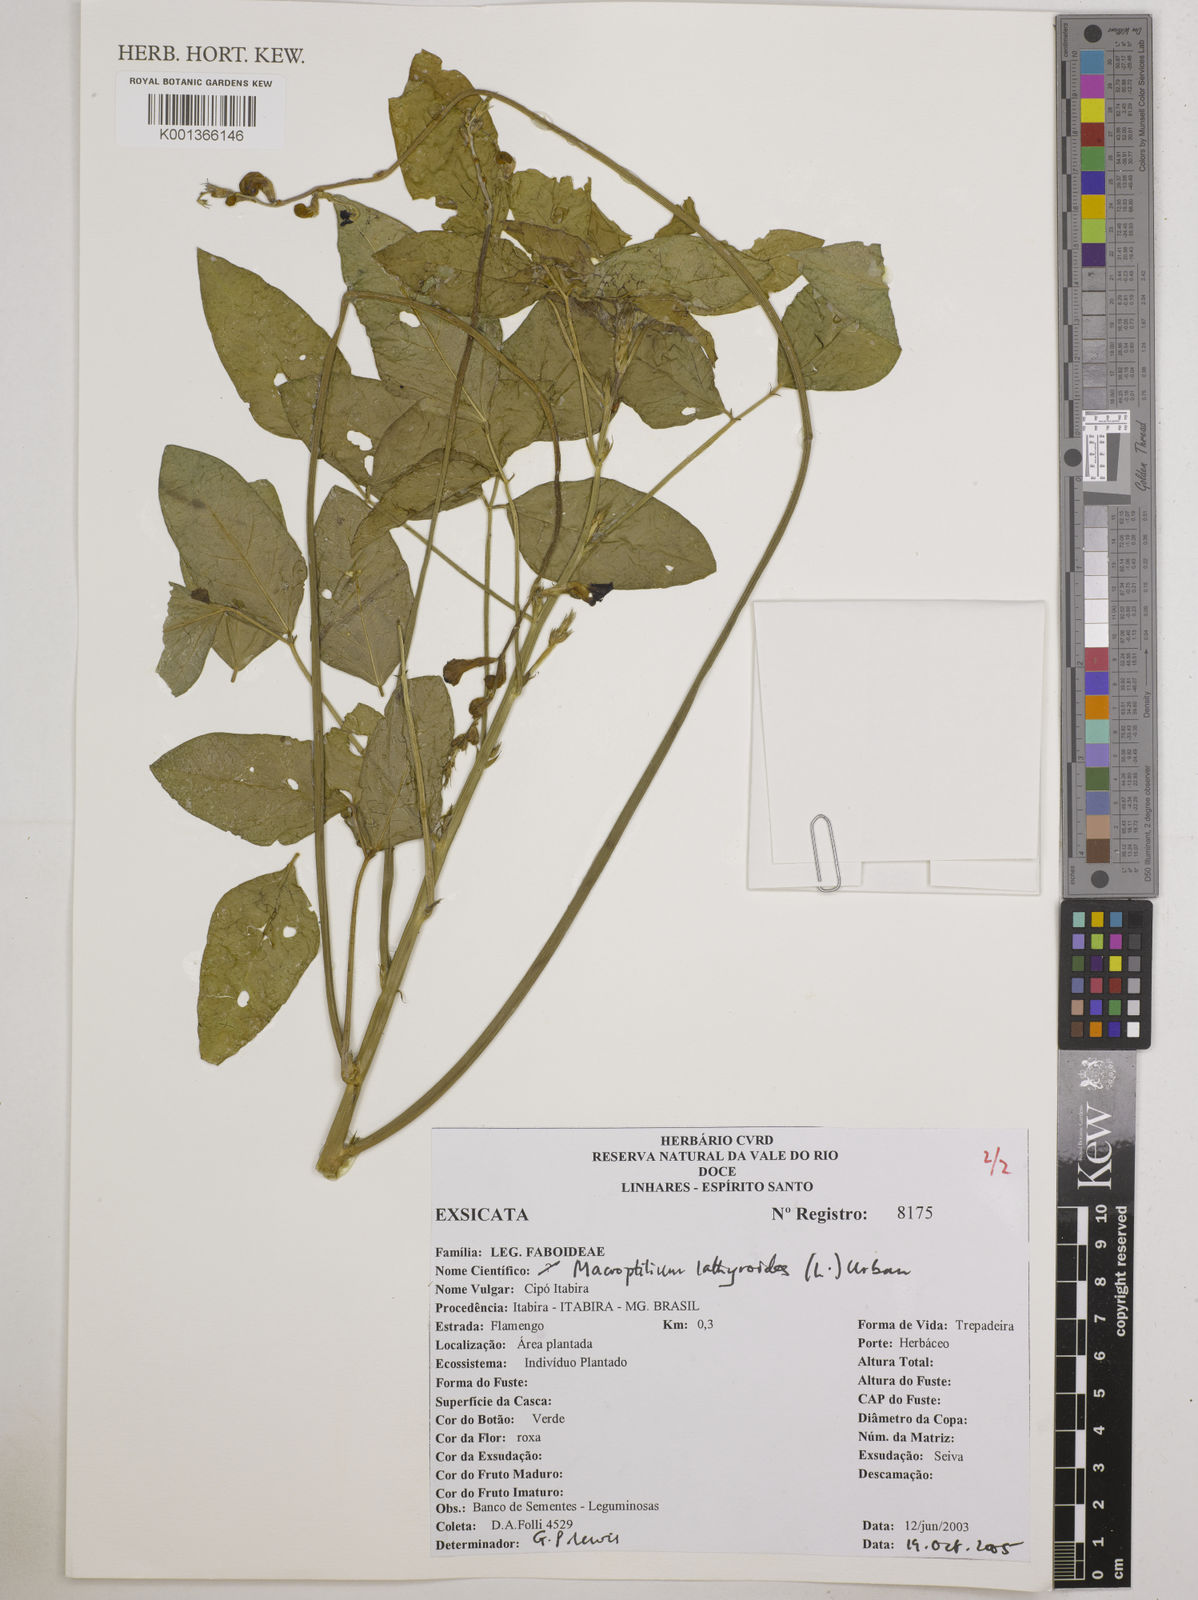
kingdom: Plantae
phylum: Tracheophyta
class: Magnoliopsida
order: Fabales
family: Fabaceae
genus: Macroptilium
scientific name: Macroptilium lathyroides
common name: Wild bushbean
